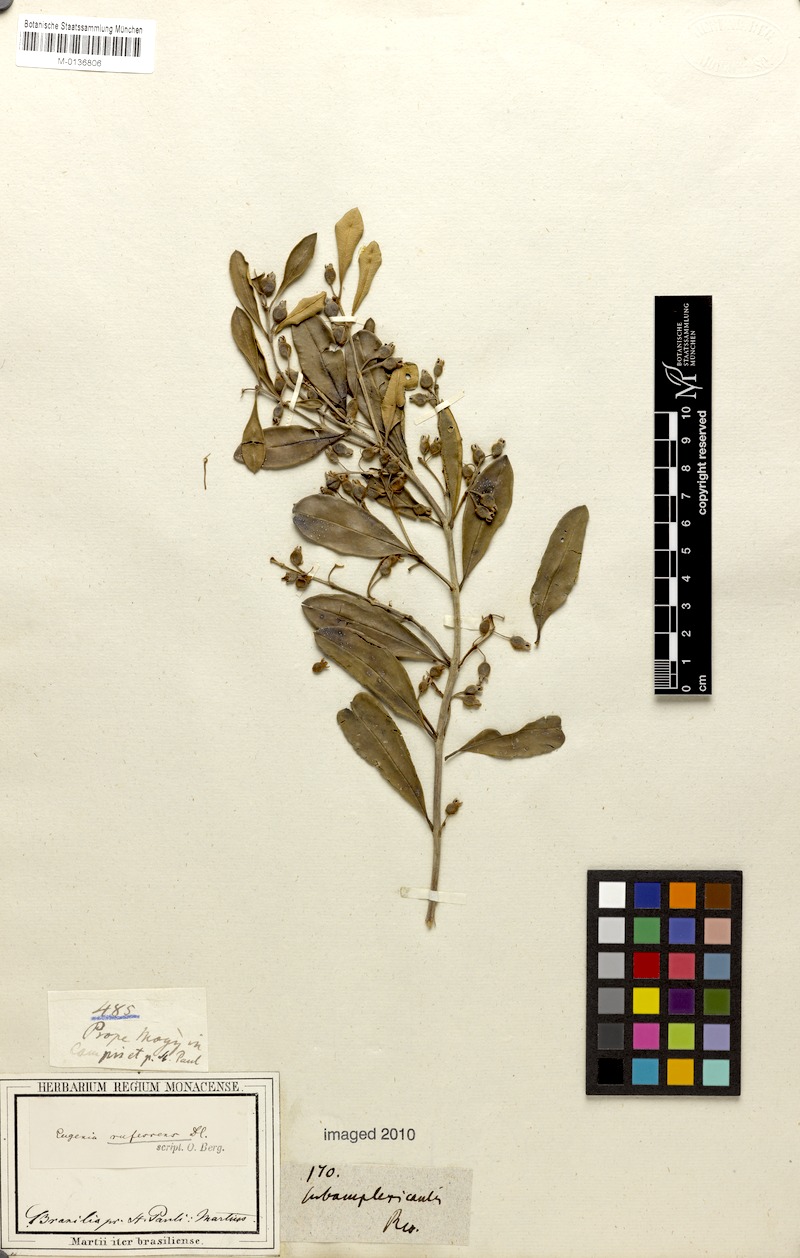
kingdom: Plantae
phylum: Tracheophyta
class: Magnoliopsida
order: Myrtales
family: Myrtaceae
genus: Myrceugenia
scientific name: Myrceugenia rufescens
